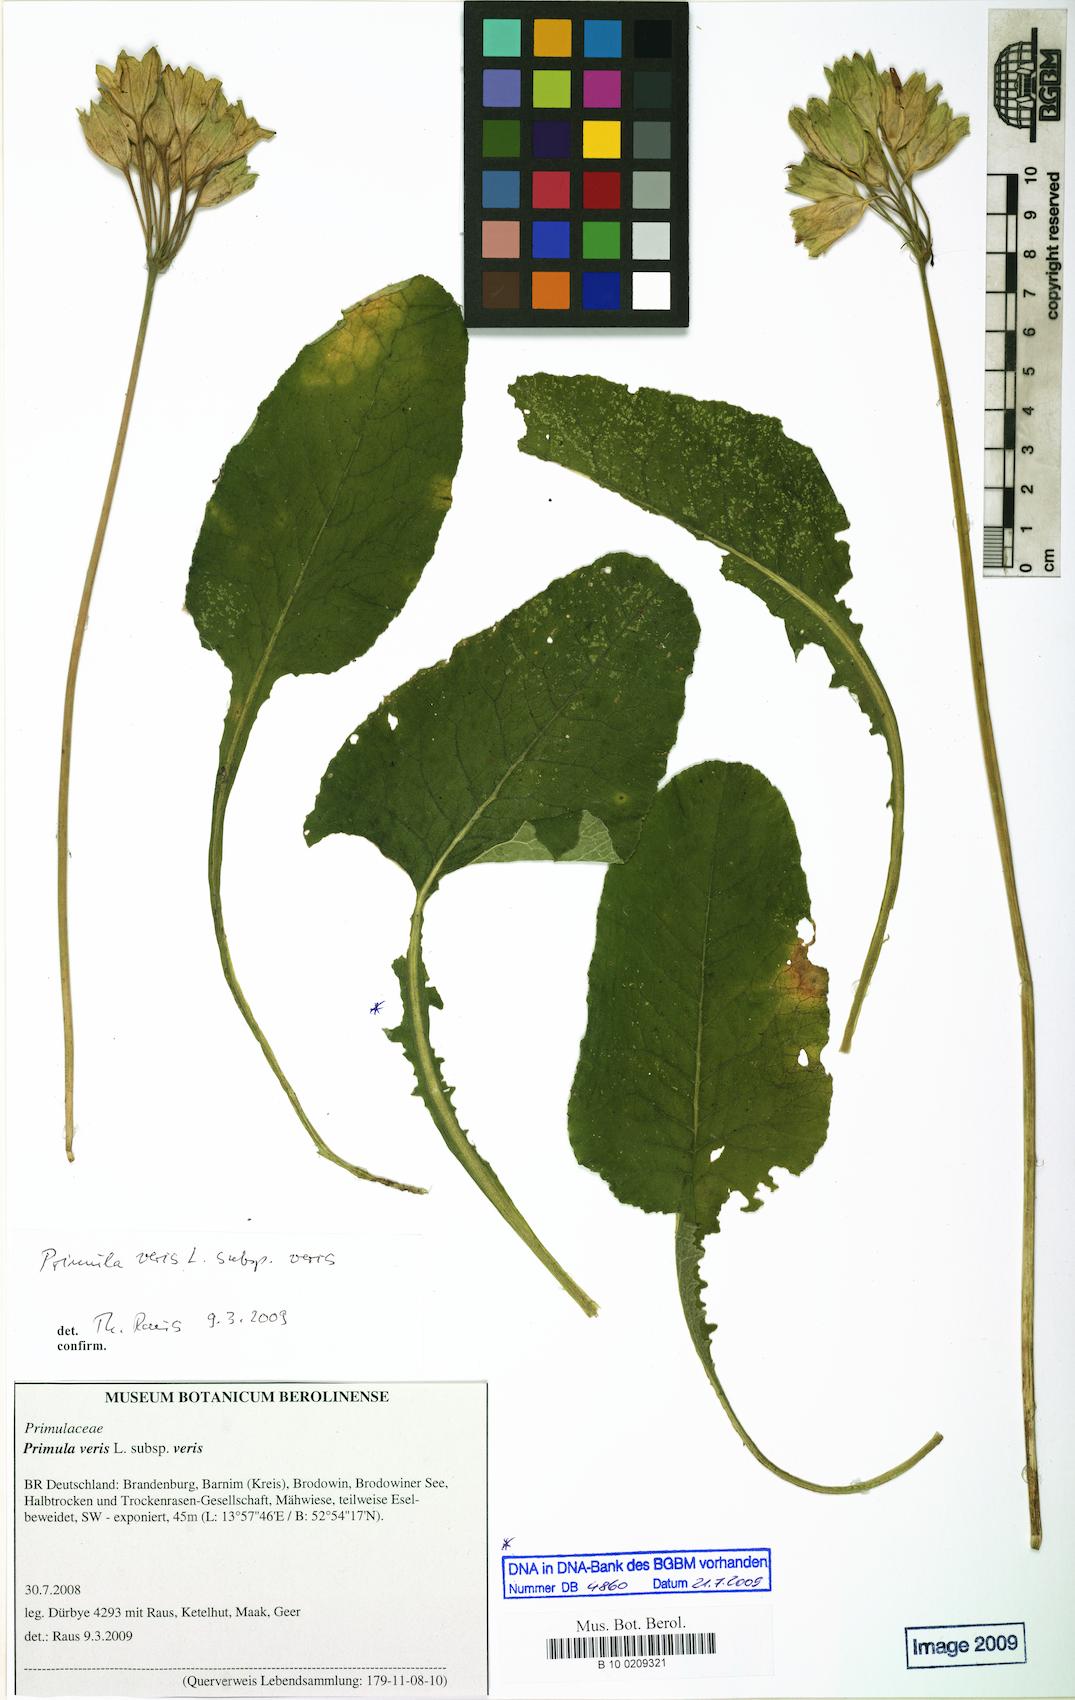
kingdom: Plantae
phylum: Tracheophyta
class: Magnoliopsida
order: Ericales
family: Primulaceae
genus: Primula
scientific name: Primula veris
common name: Cowslip
